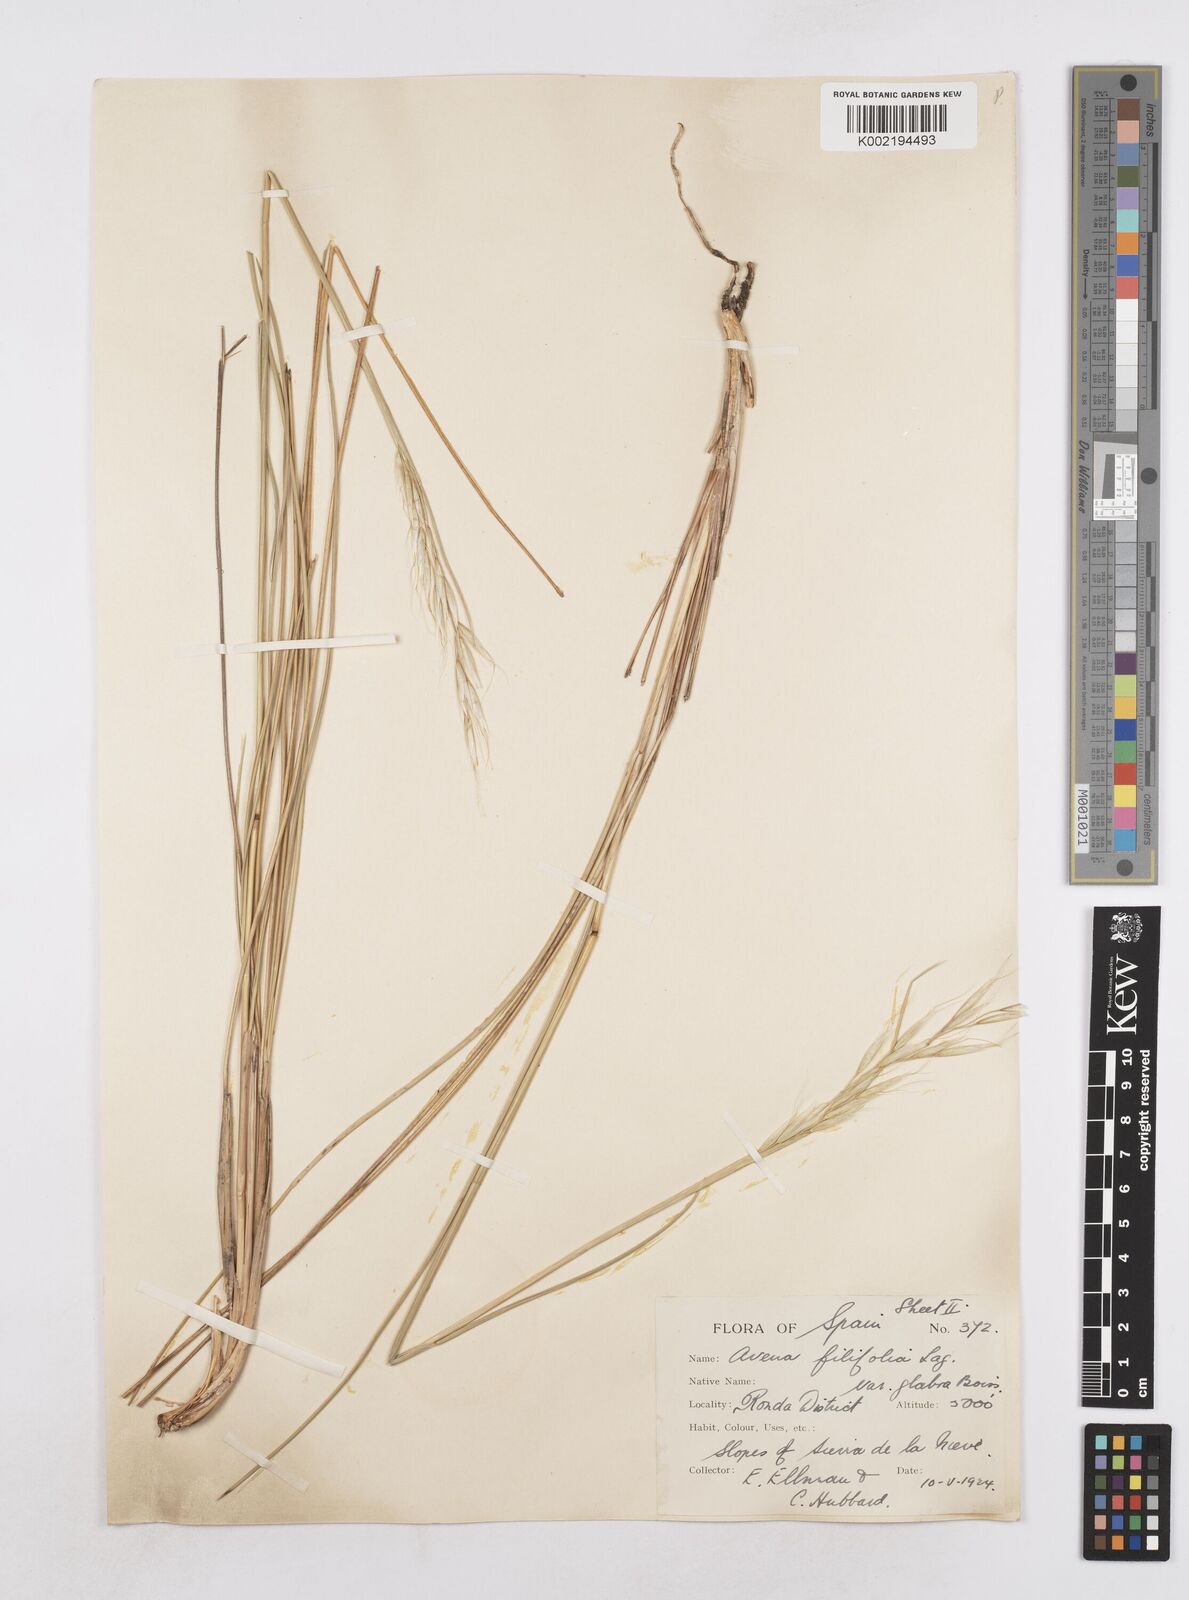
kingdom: Plantae
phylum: Tracheophyta
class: Liliopsida
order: Poales
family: Poaceae
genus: Helictotrichon
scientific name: Helictotrichon filifolium
